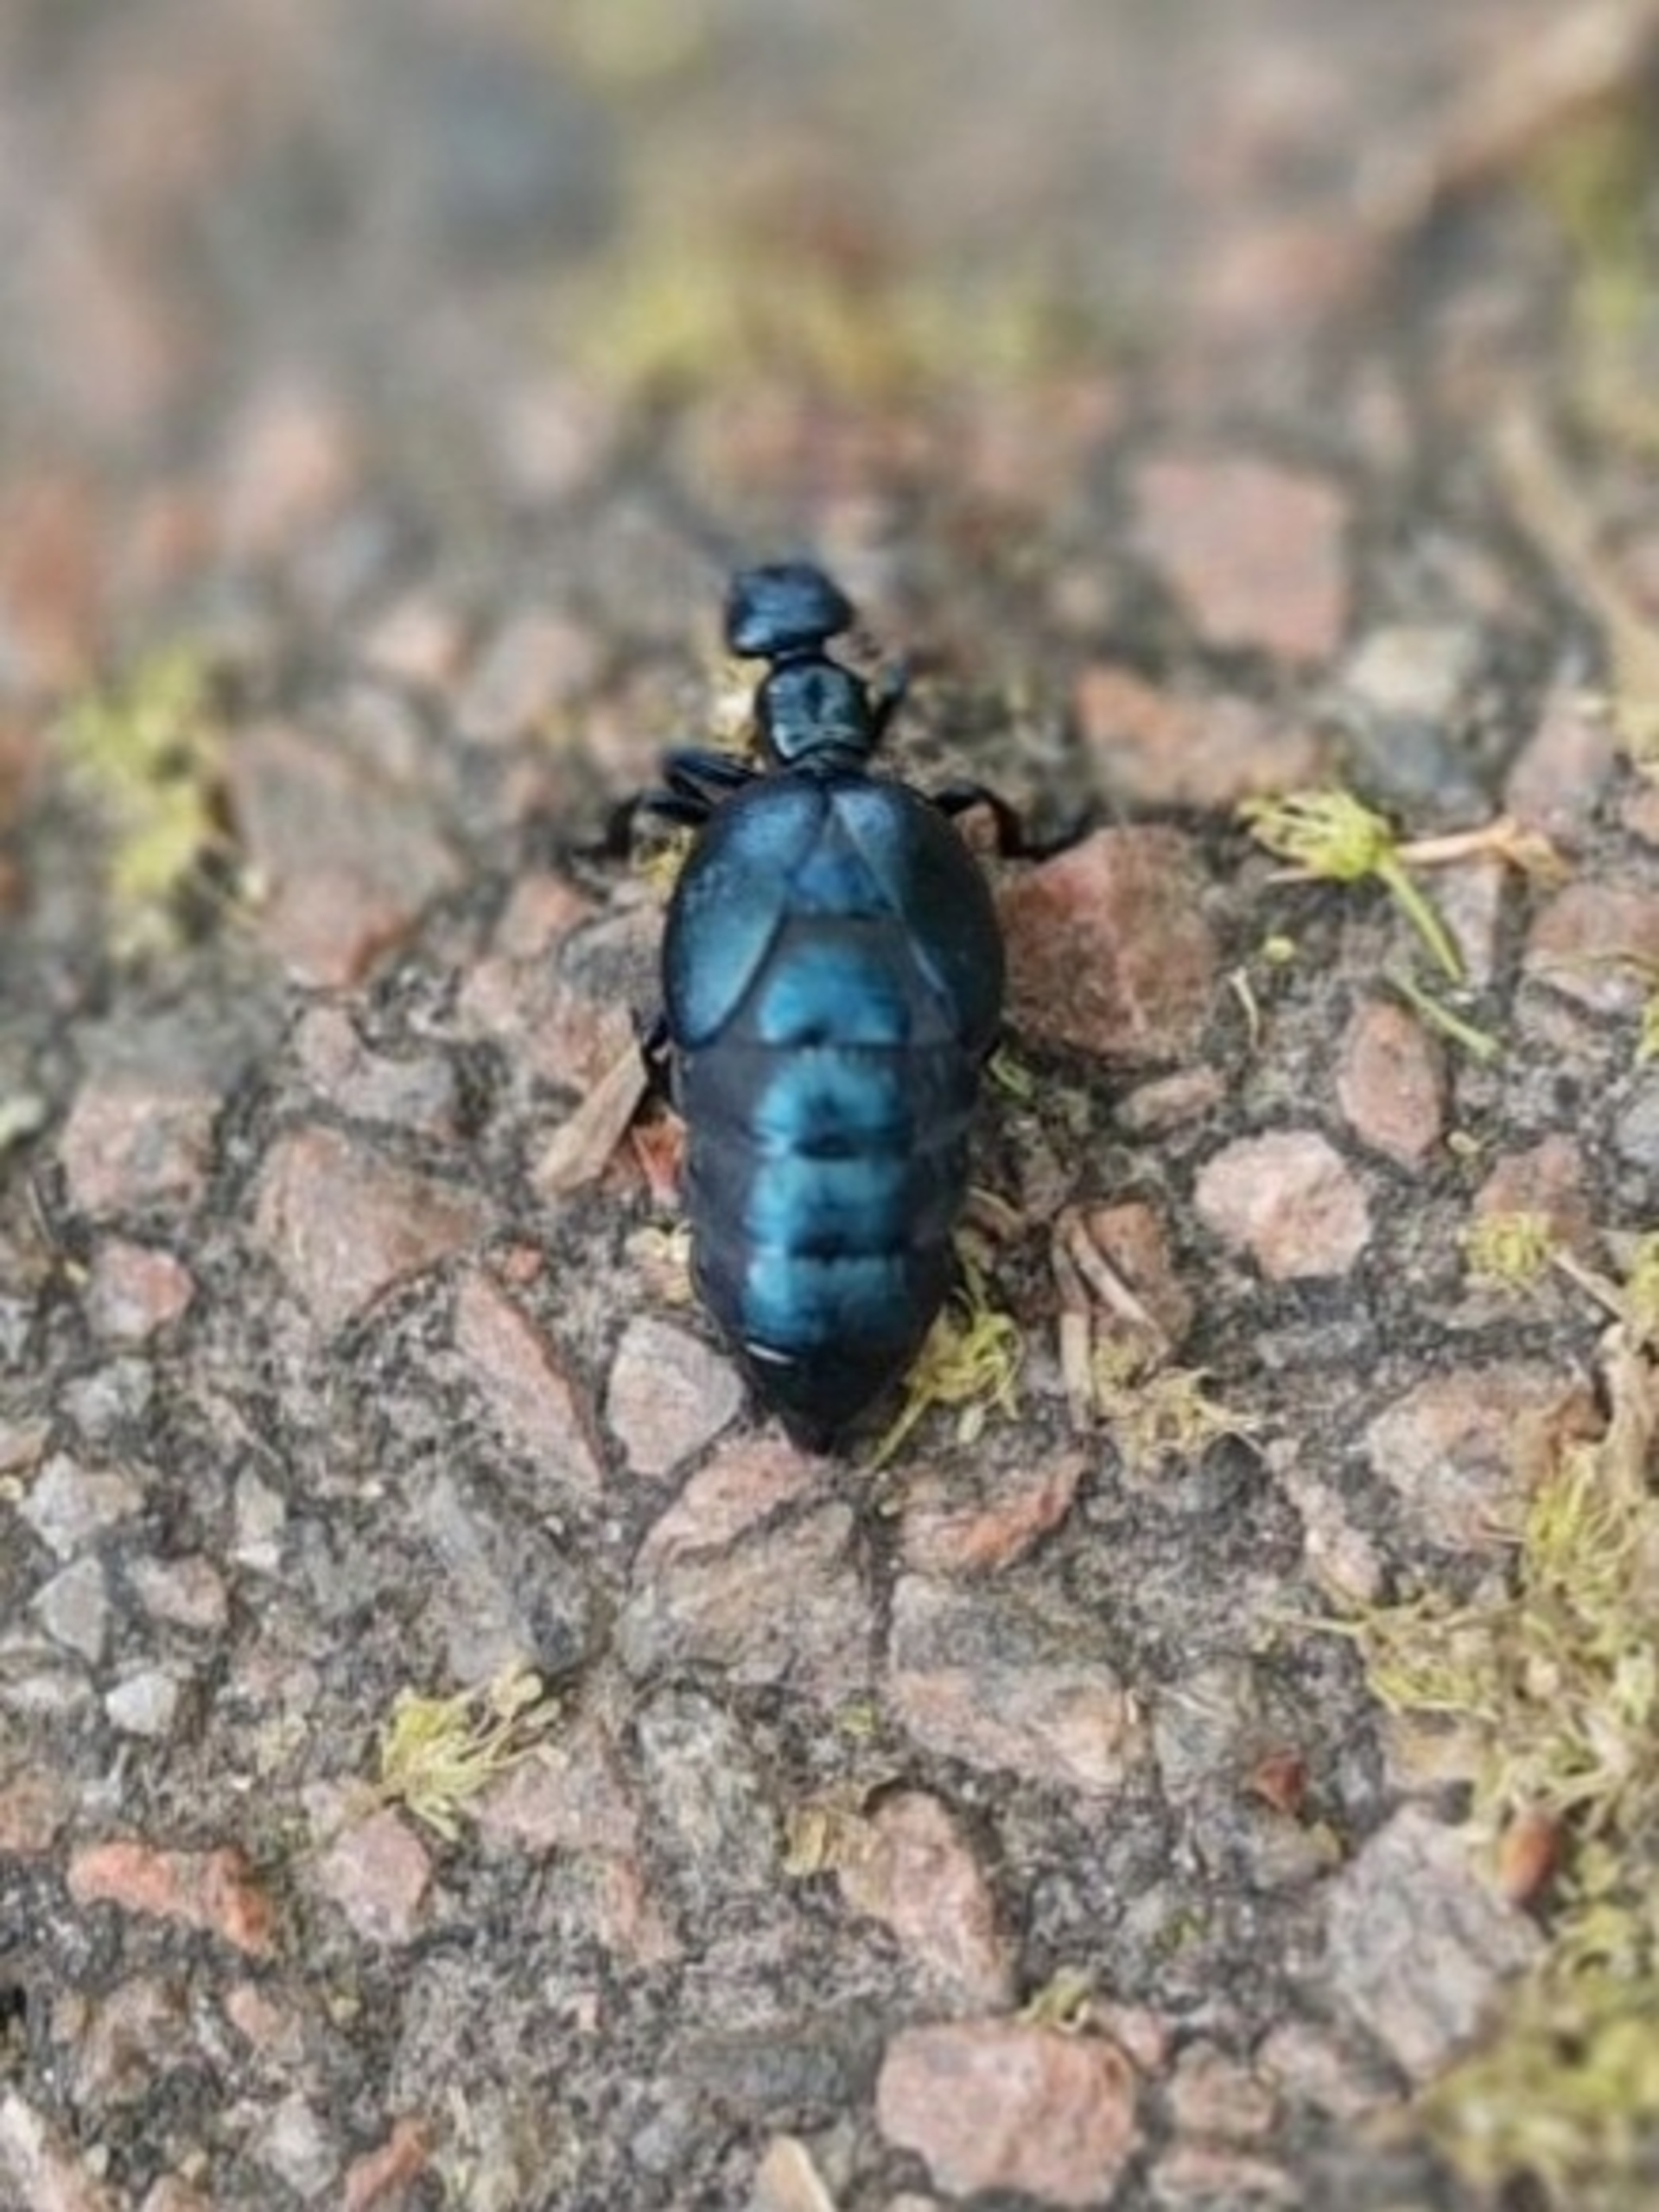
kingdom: Animalia
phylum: Arthropoda
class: Insecta
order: Coleoptera
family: Meloidae
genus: Meloe
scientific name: Meloe violaceus
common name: Blå oliebille
